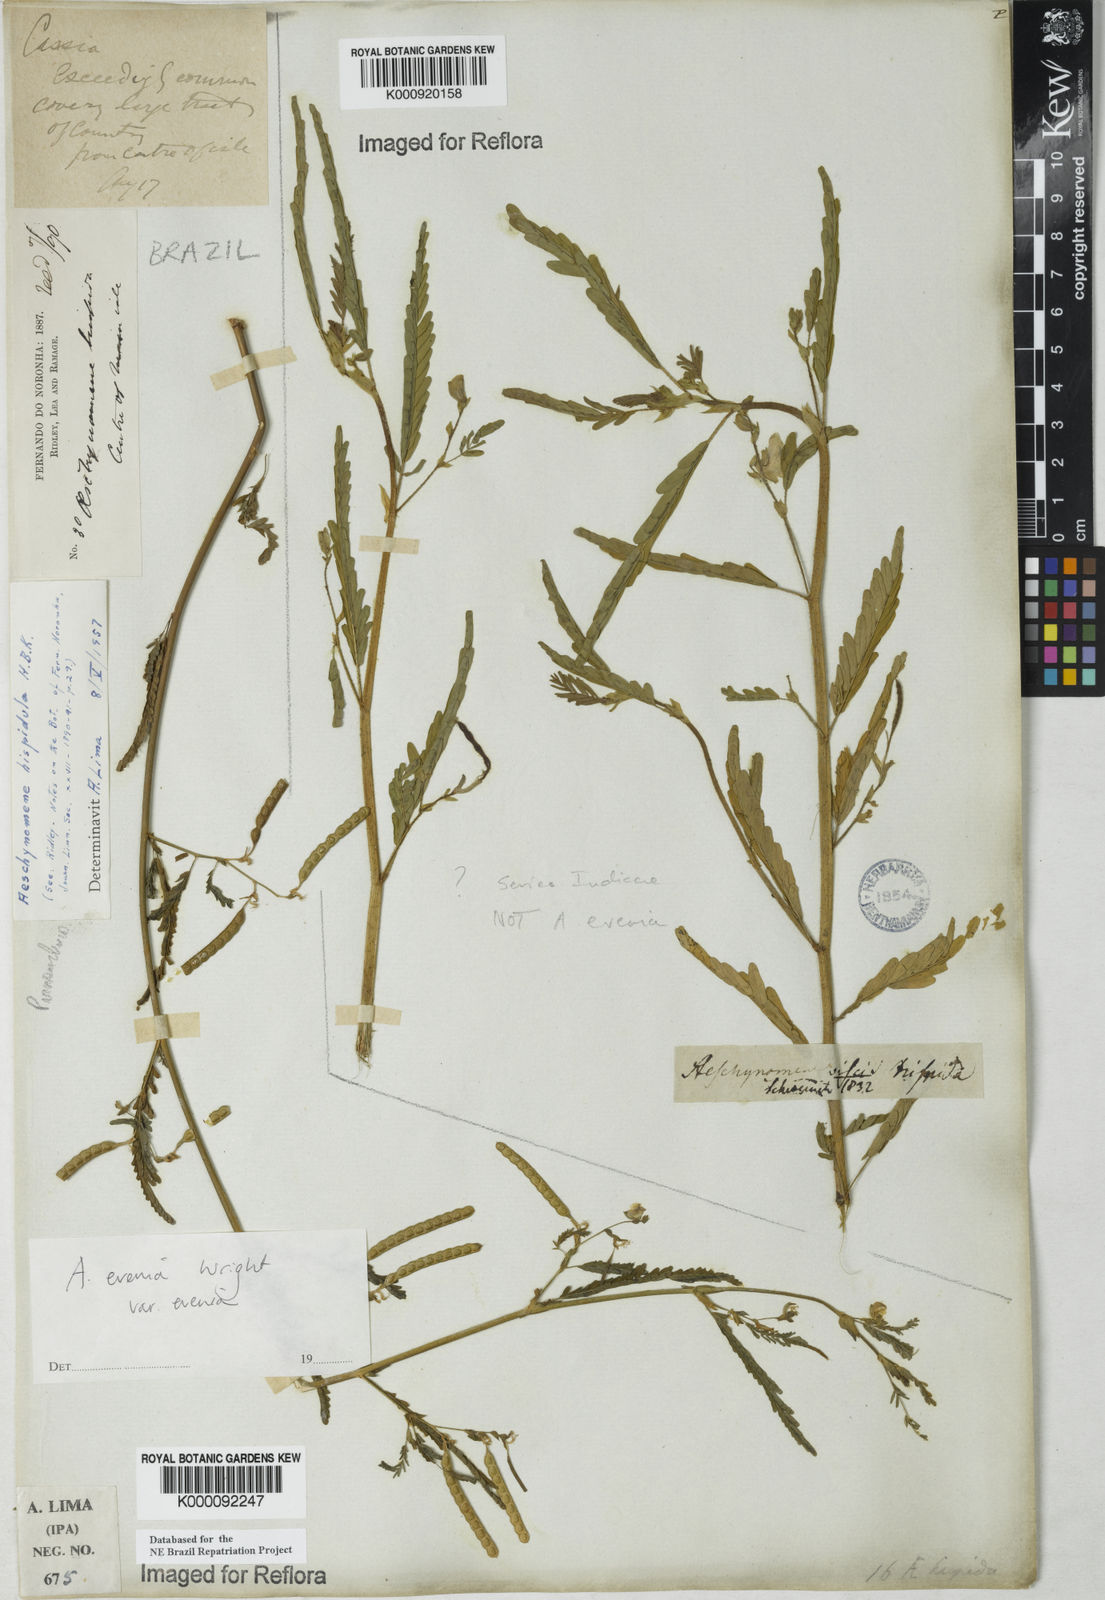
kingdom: Plantae
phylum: Tracheophyta
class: Magnoliopsida
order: Fabales
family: Fabaceae
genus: Aeschynomene
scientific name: Aeschynomene evenia
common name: Shrubby jointvetch
